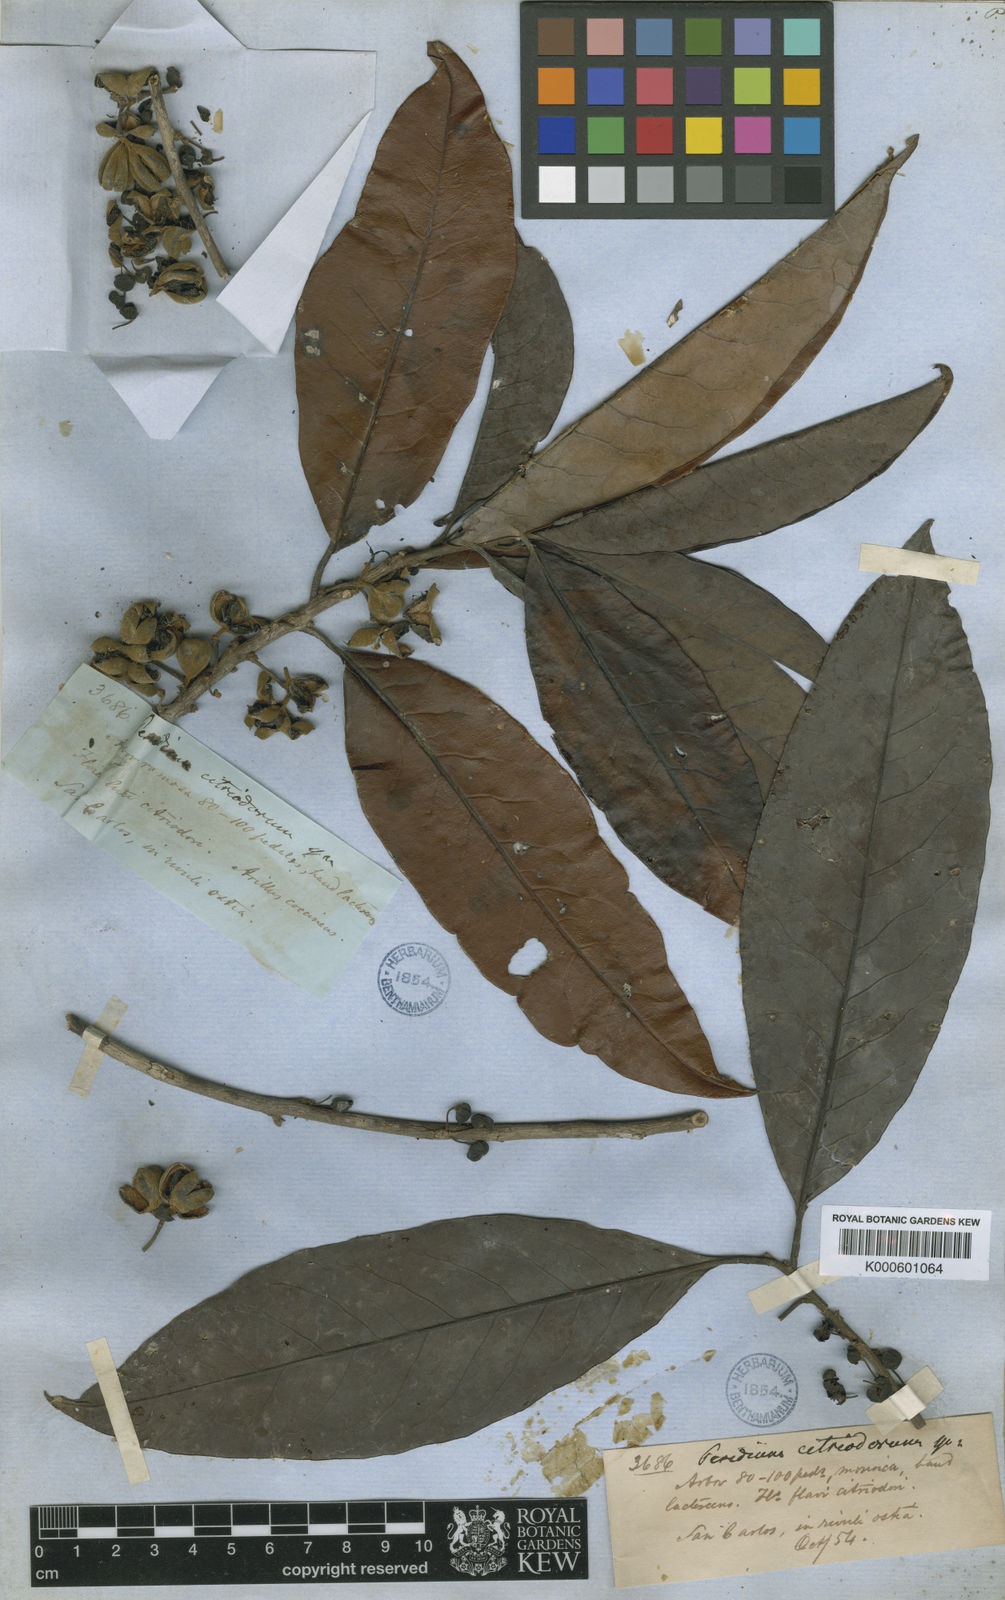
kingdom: Plantae
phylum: Tracheophyta
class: Magnoliopsida
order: Malpighiales
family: Peraceae
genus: Pera
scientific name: Pera citriodora
